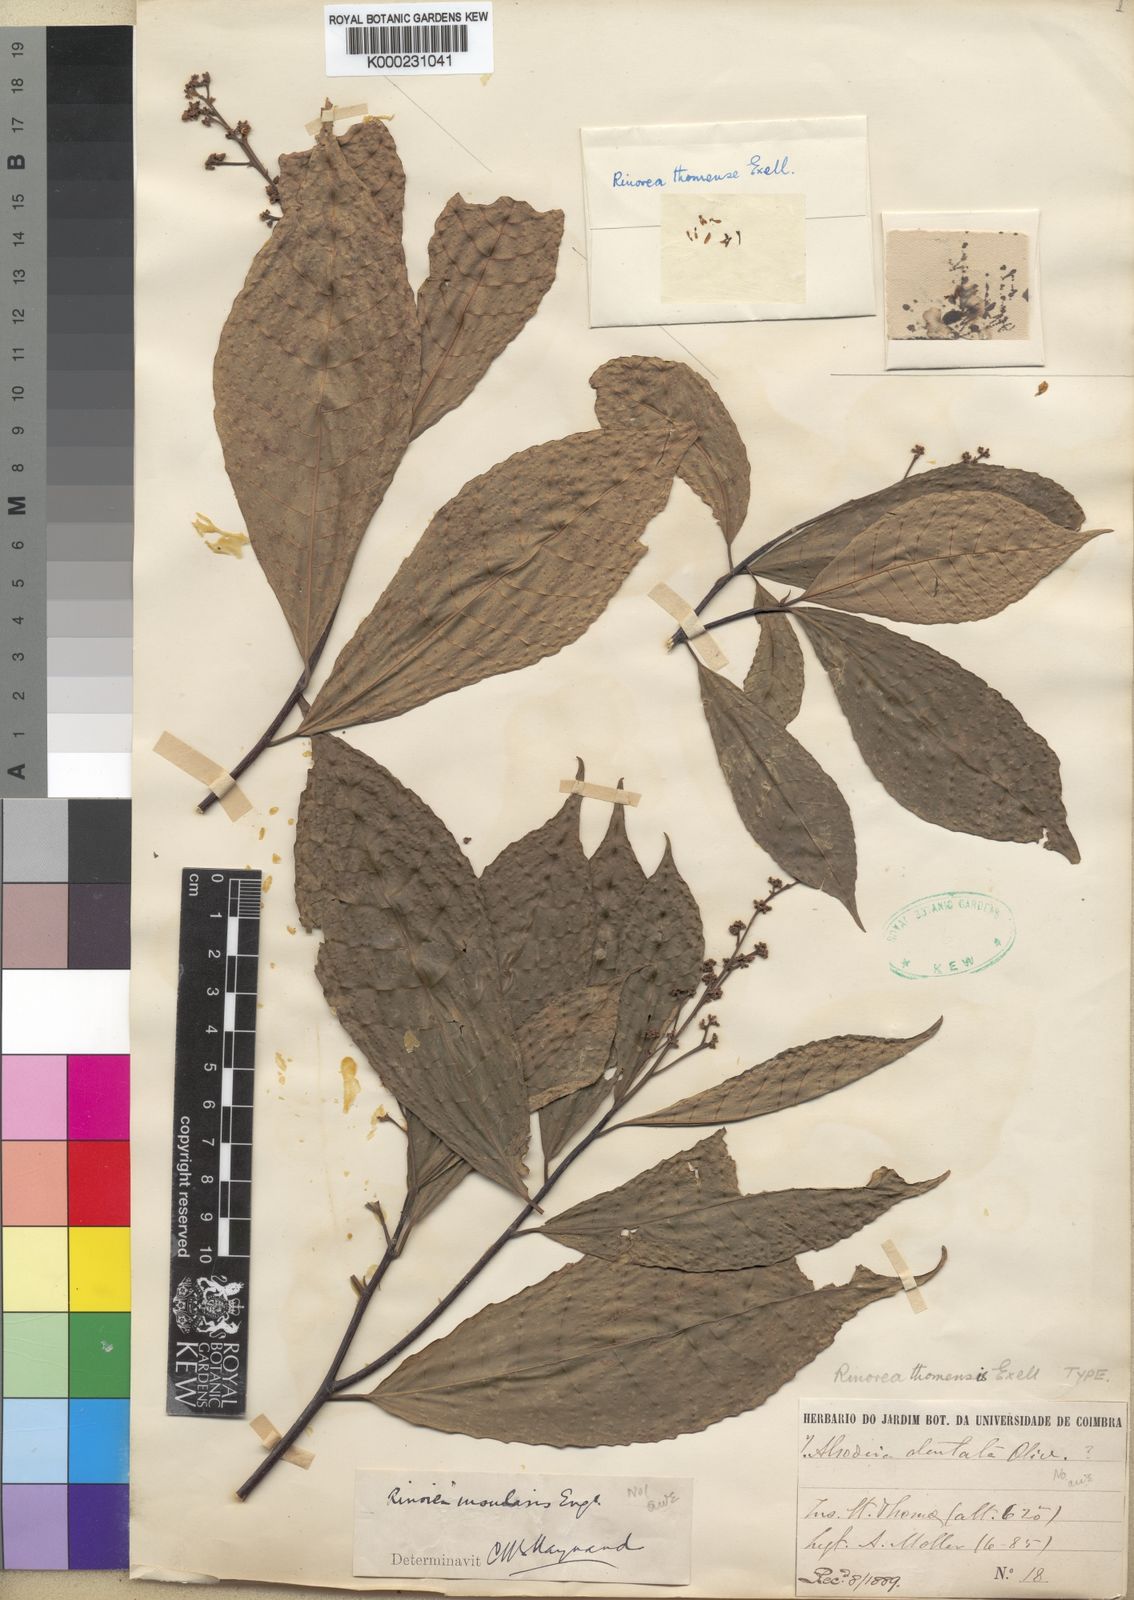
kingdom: Plantae
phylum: Tracheophyta
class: Magnoliopsida
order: Malpighiales
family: Violaceae
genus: Rinorea
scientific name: Rinorea thomensis
